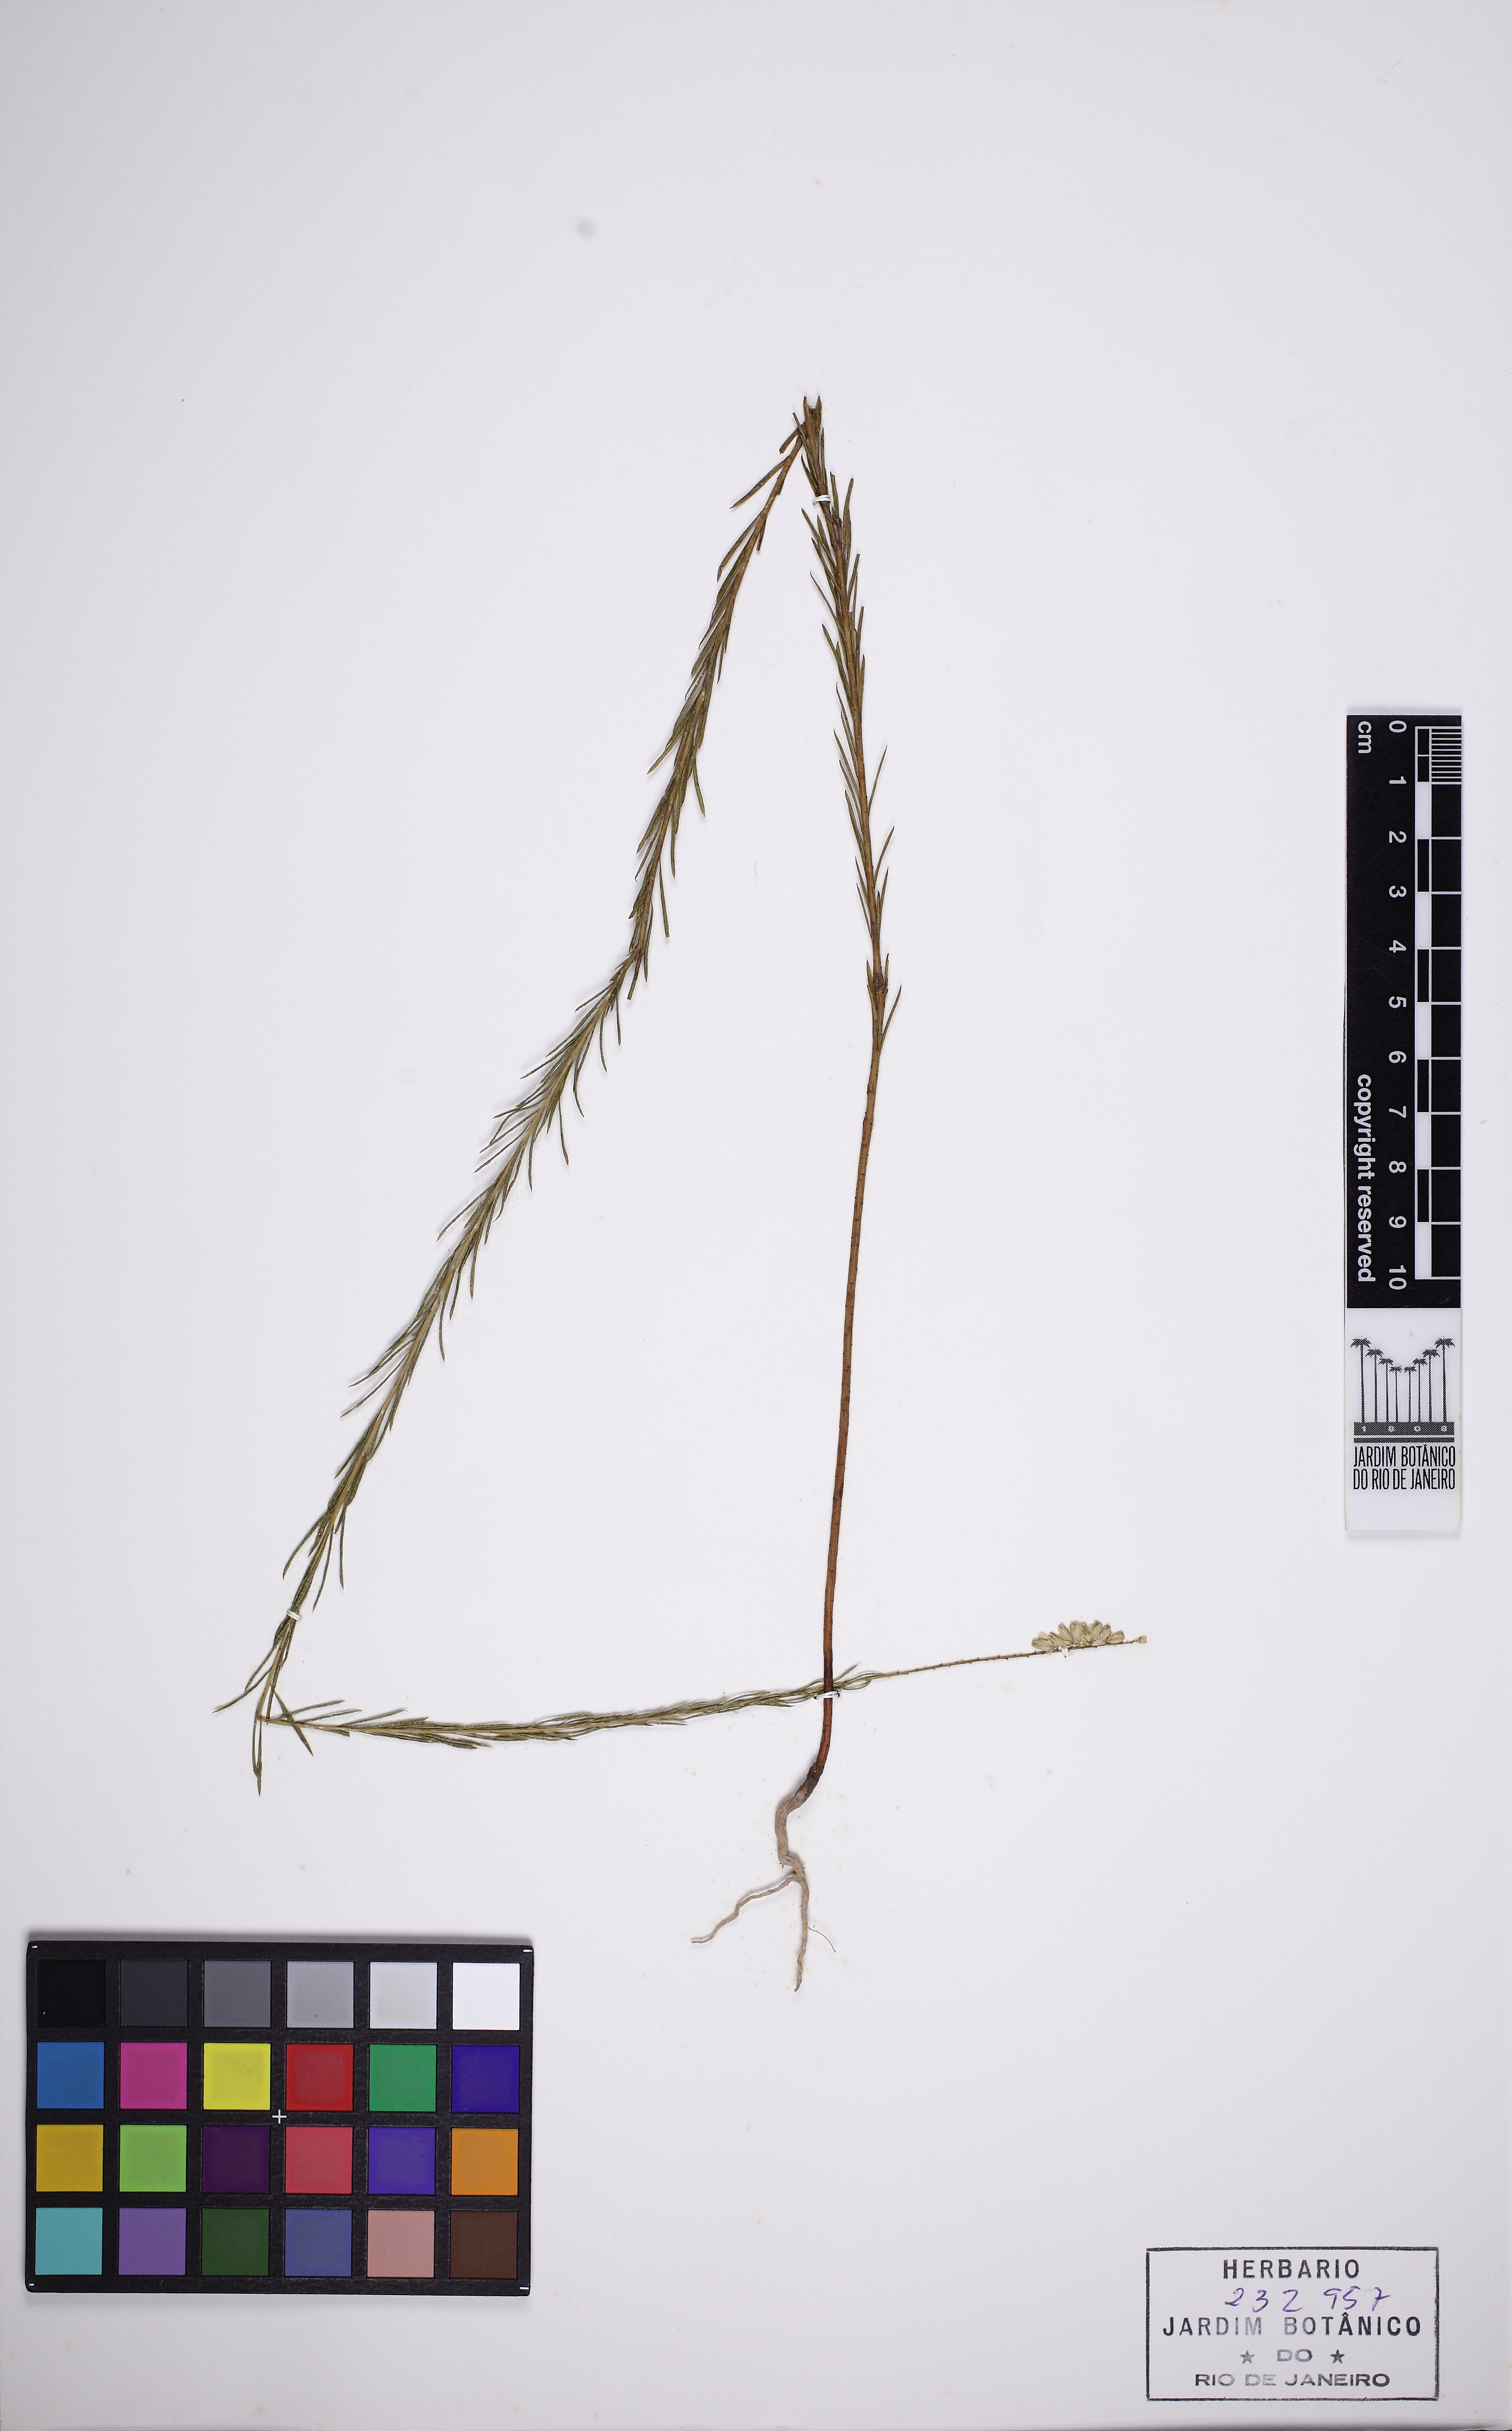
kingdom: Plantae
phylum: Tracheophyta
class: Magnoliopsida
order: Fabales
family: Polygalaceae
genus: Polygala
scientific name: Polygala sericea
